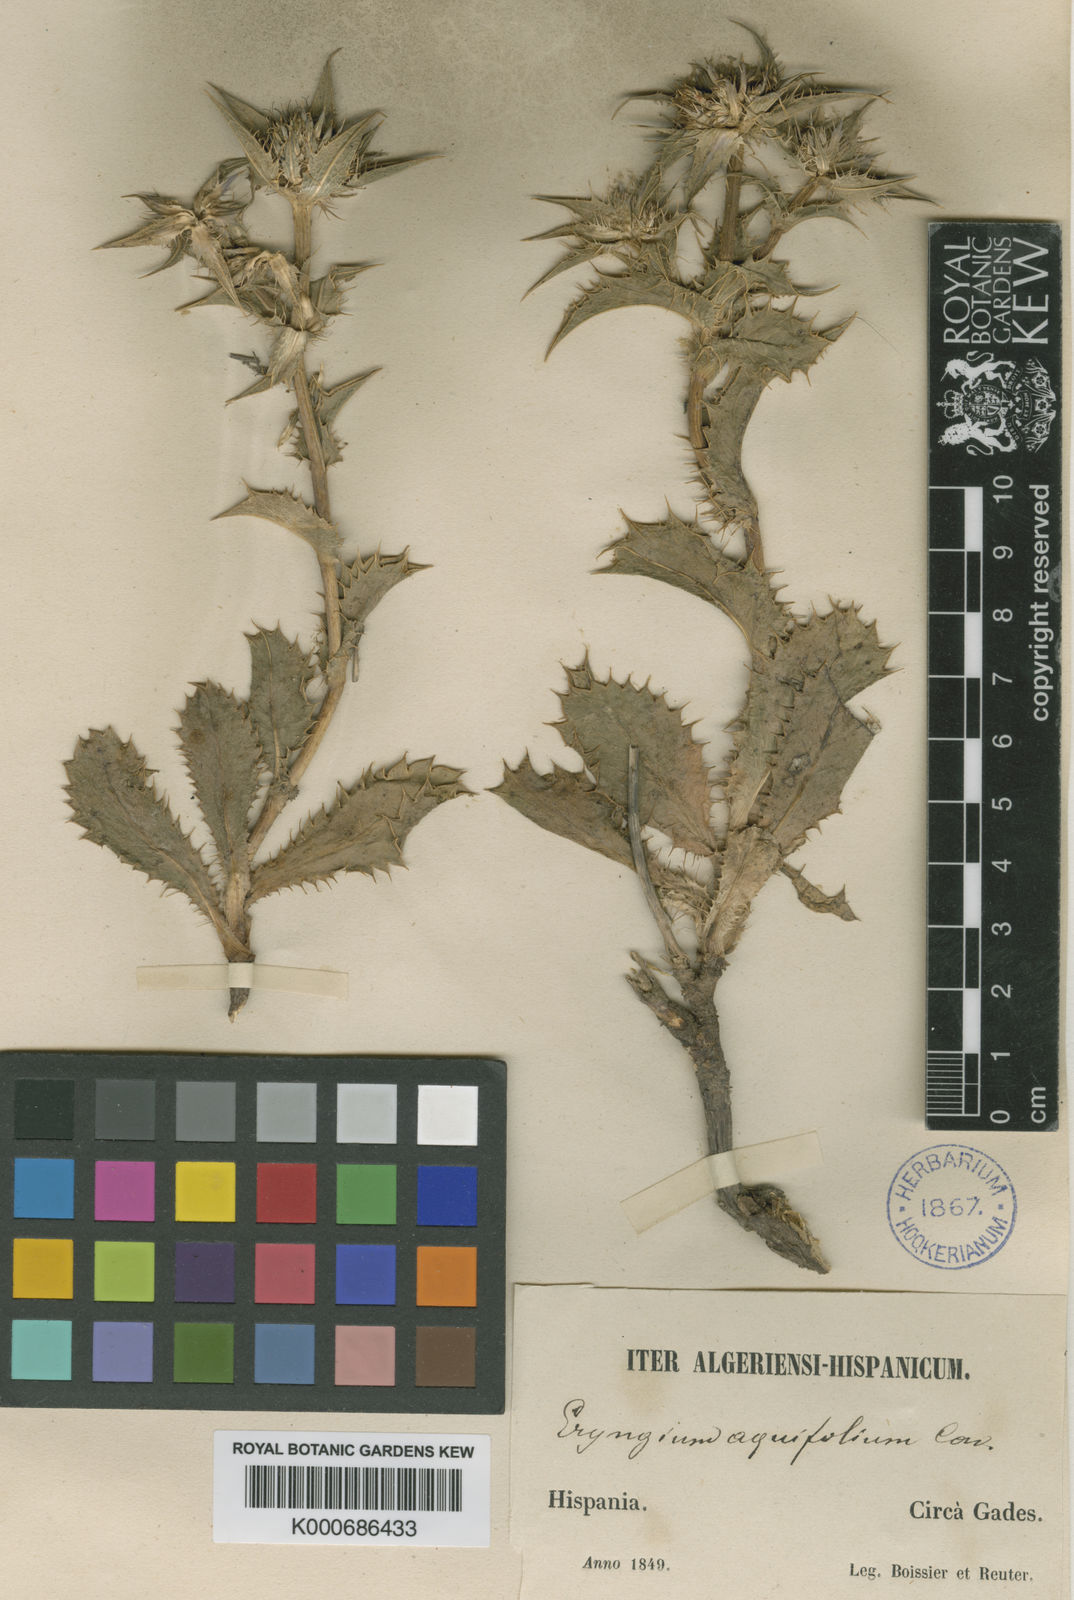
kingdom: Plantae
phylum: Tracheophyta
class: Magnoliopsida
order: Apiales
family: Apiaceae
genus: Eryngium
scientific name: Eryngium aquifolium
